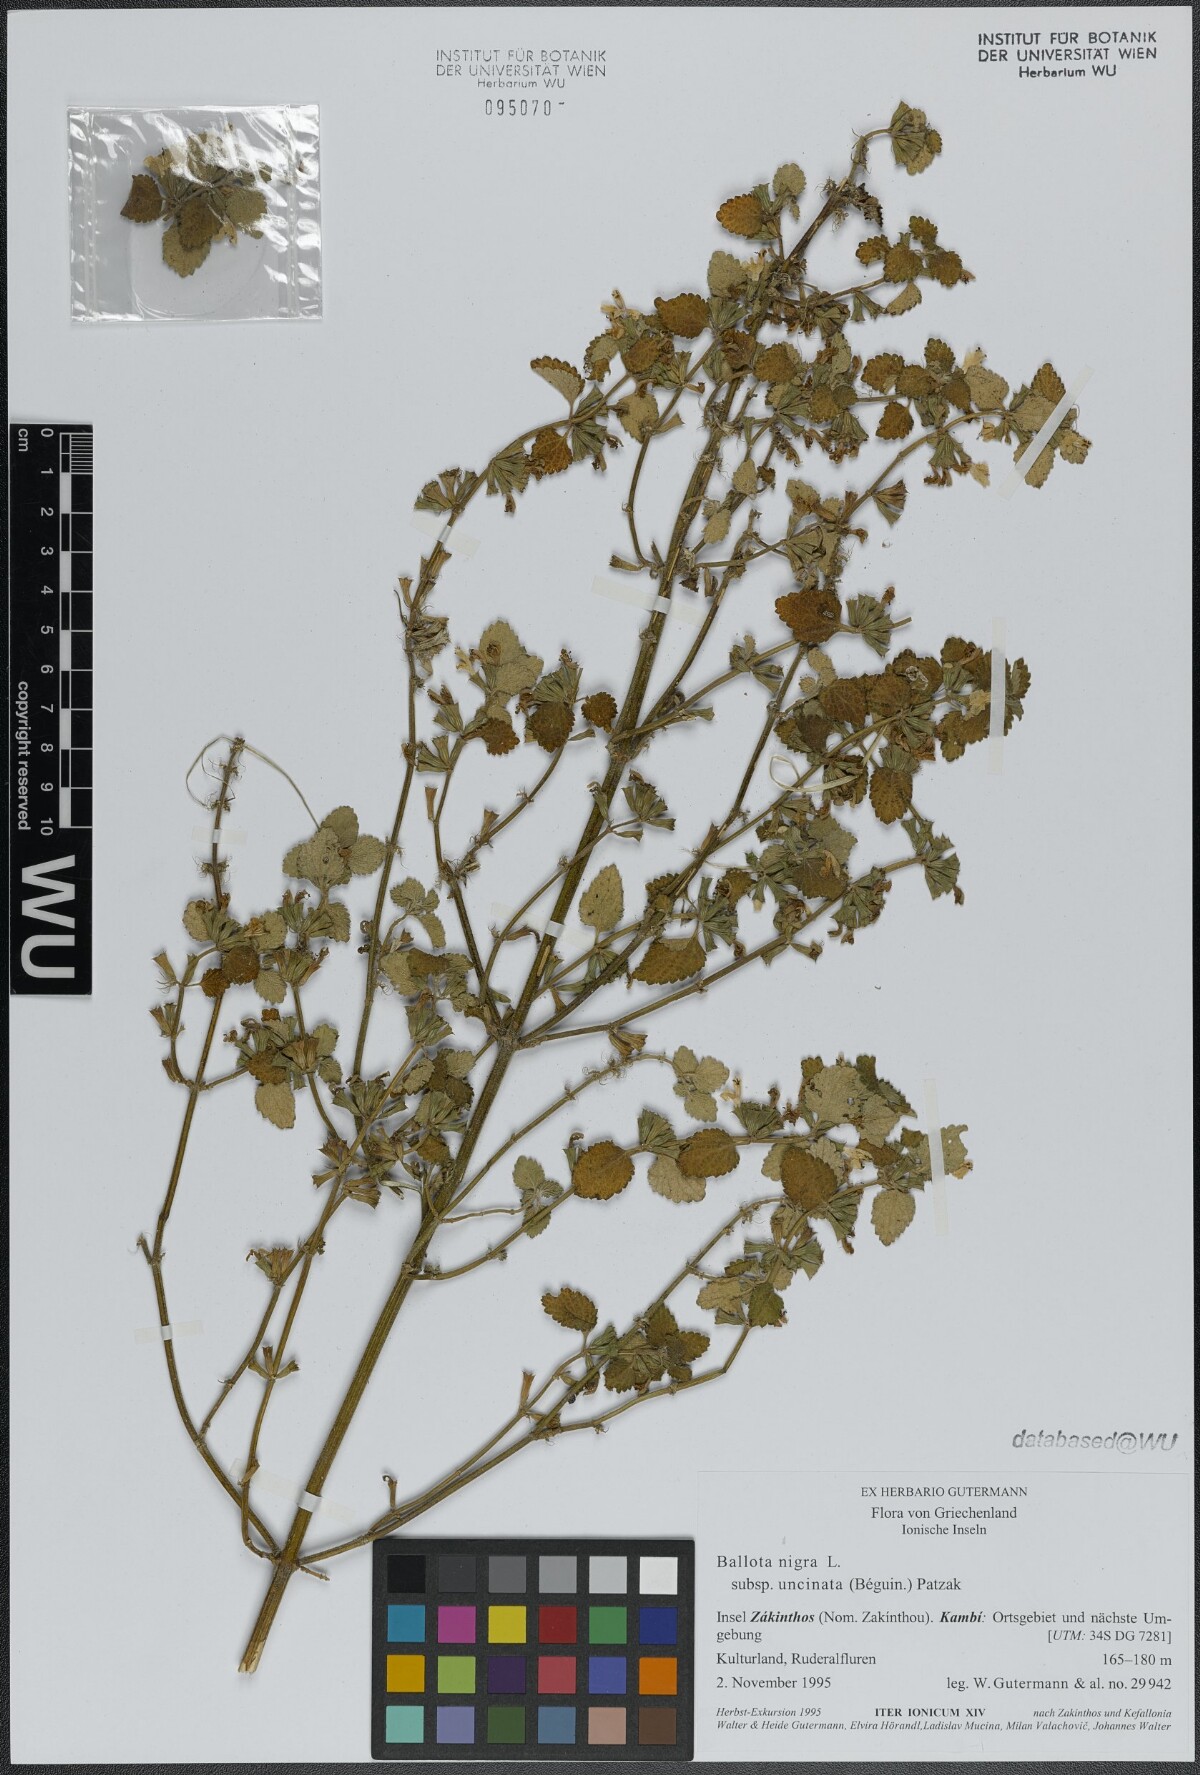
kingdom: Plantae
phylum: Tracheophyta
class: Magnoliopsida
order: Lamiales
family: Lamiaceae
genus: Ballota
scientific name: Ballota nigra
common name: Black horehound
